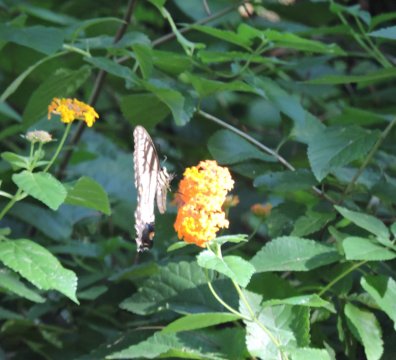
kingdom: Animalia
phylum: Arthropoda
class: Insecta
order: Lepidoptera
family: Papilionidae
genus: Pterourus
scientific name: Pterourus glaucus
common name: Eastern Tiger Swallowtail
